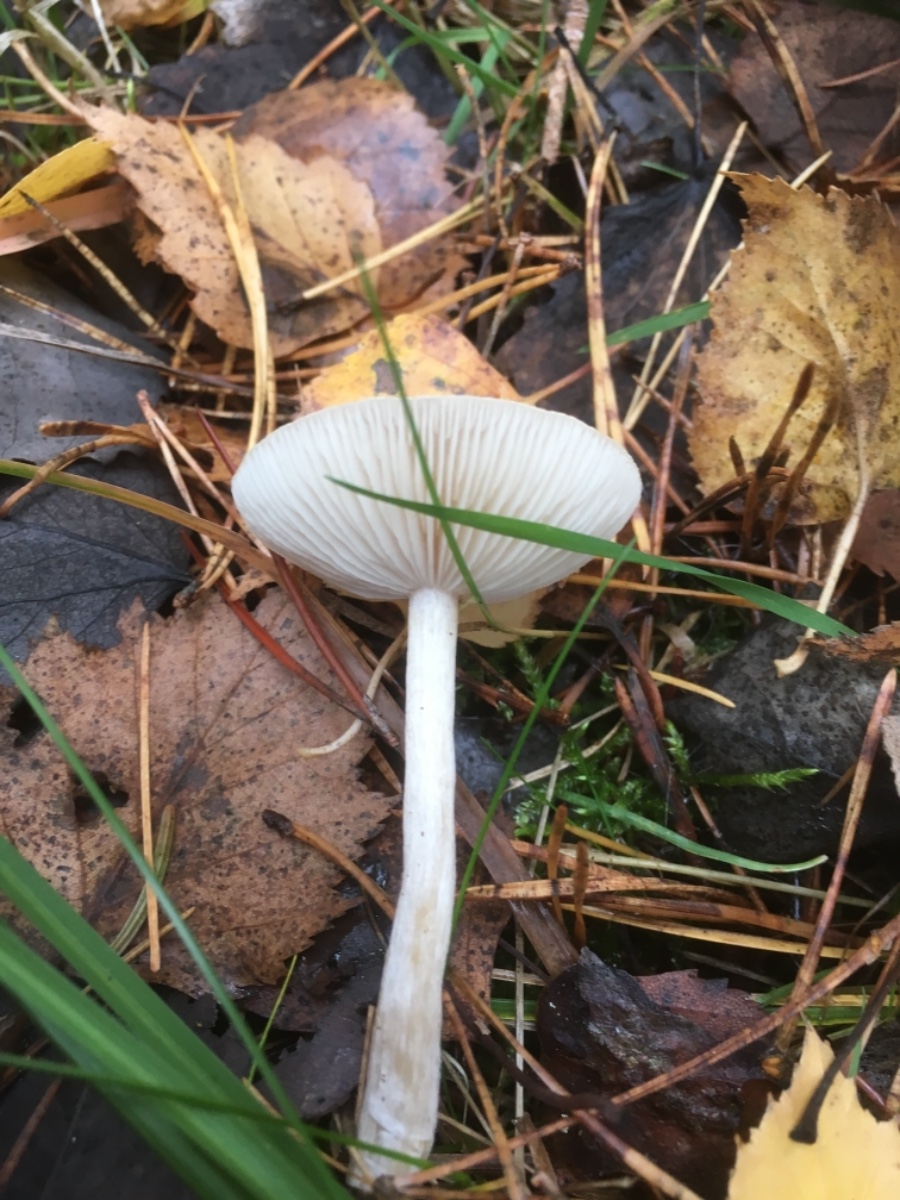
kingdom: Fungi
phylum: Basidiomycota
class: Agaricomycetes
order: Agaricales
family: Tricholomataceae
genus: Clitocybe
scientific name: Clitocybe fragrans
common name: vellugtende tragthat
